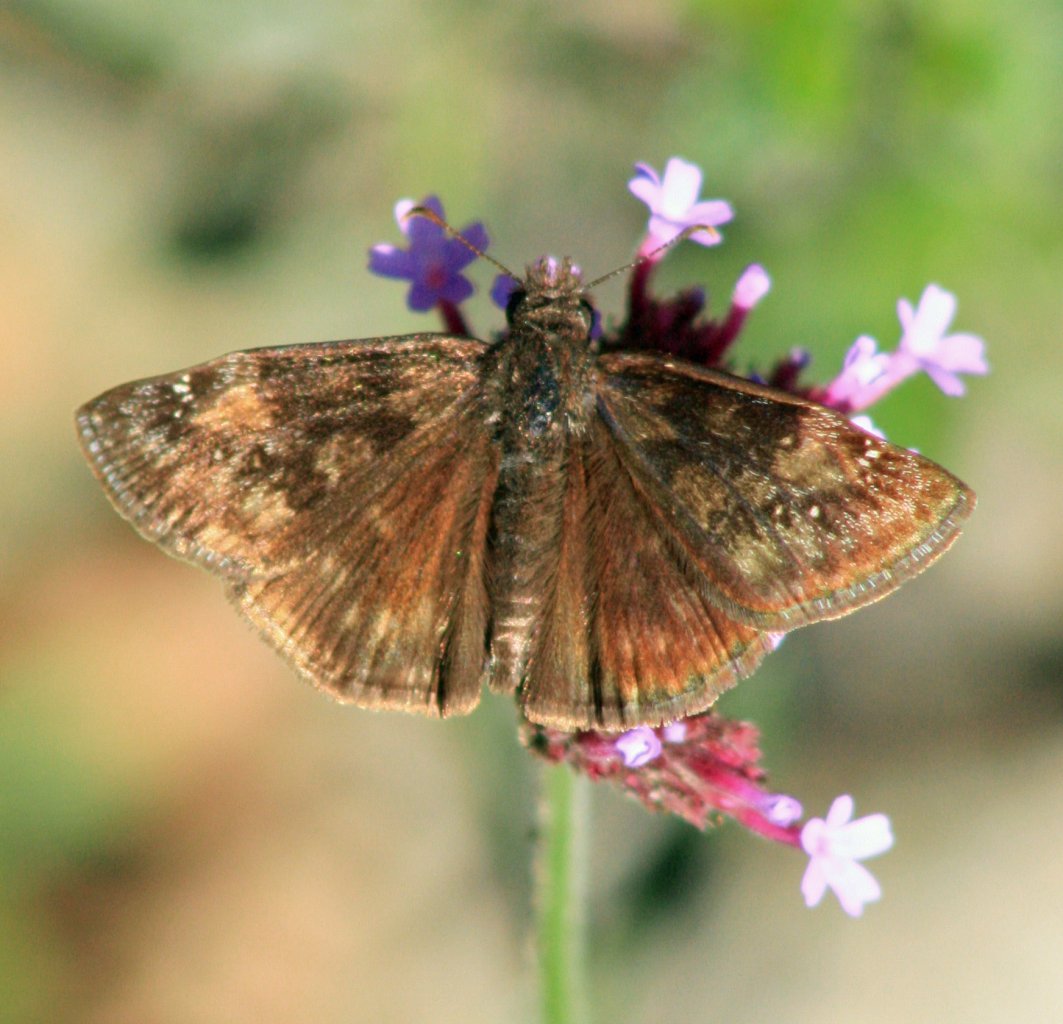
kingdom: Animalia
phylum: Arthropoda
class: Insecta
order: Lepidoptera
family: Hesperiidae
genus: Gesta
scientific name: Gesta
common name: Wild Indigo Duskywing
